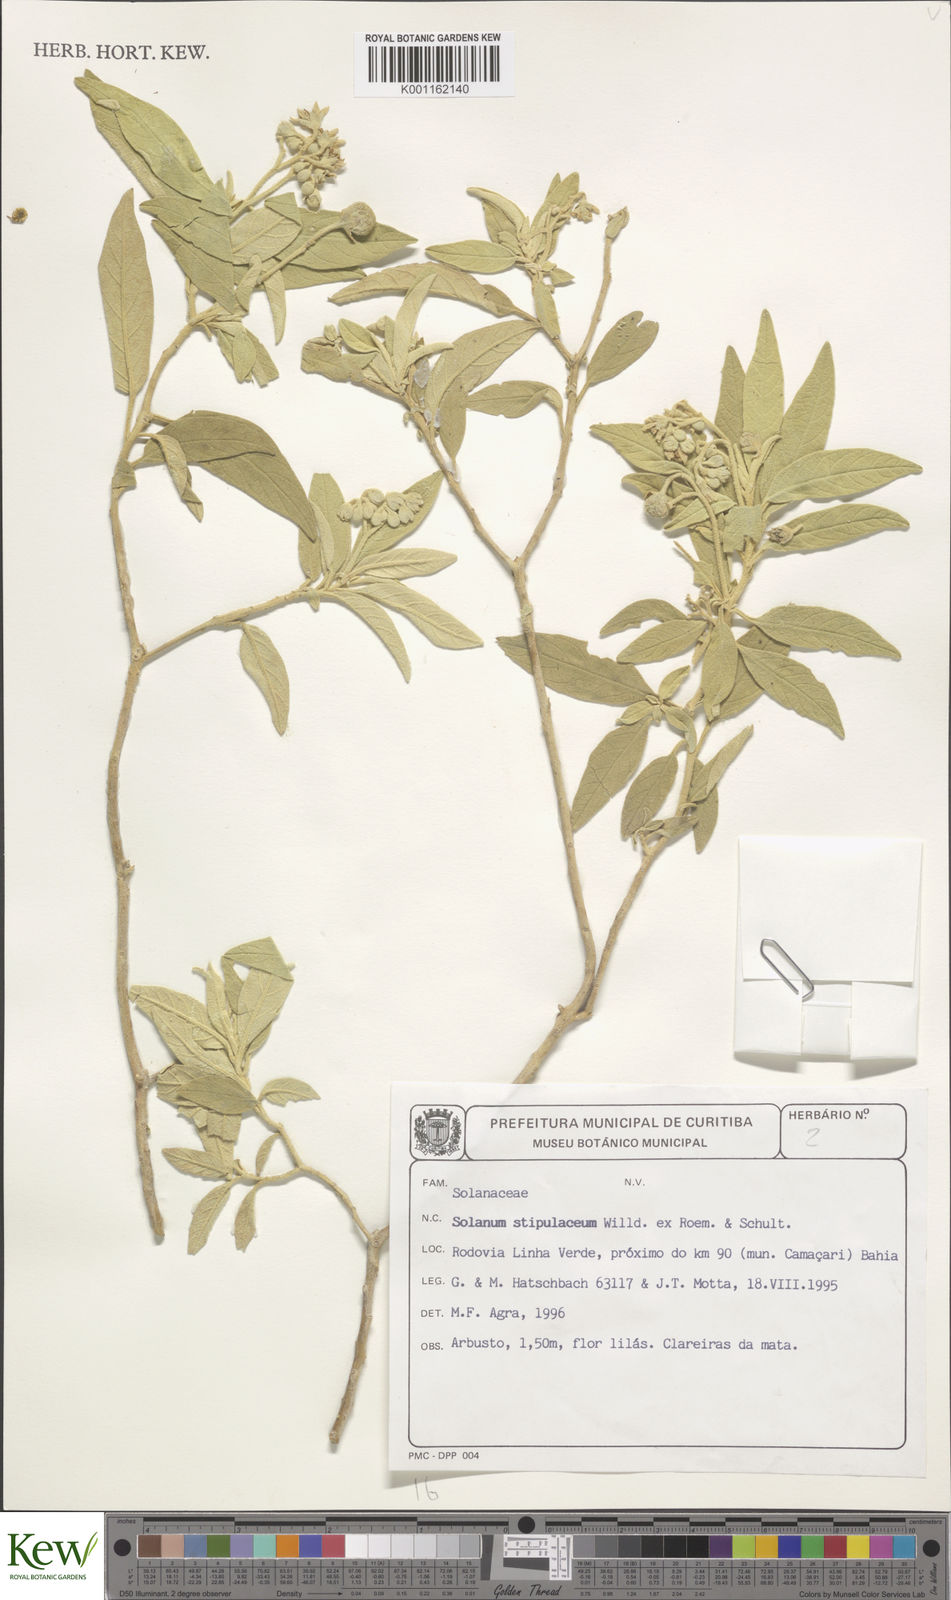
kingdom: Plantae
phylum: Tracheophyta
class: Magnoliopsida
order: Solanales
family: Solanaceae
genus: Solanum
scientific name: Solanum stipulaceum
